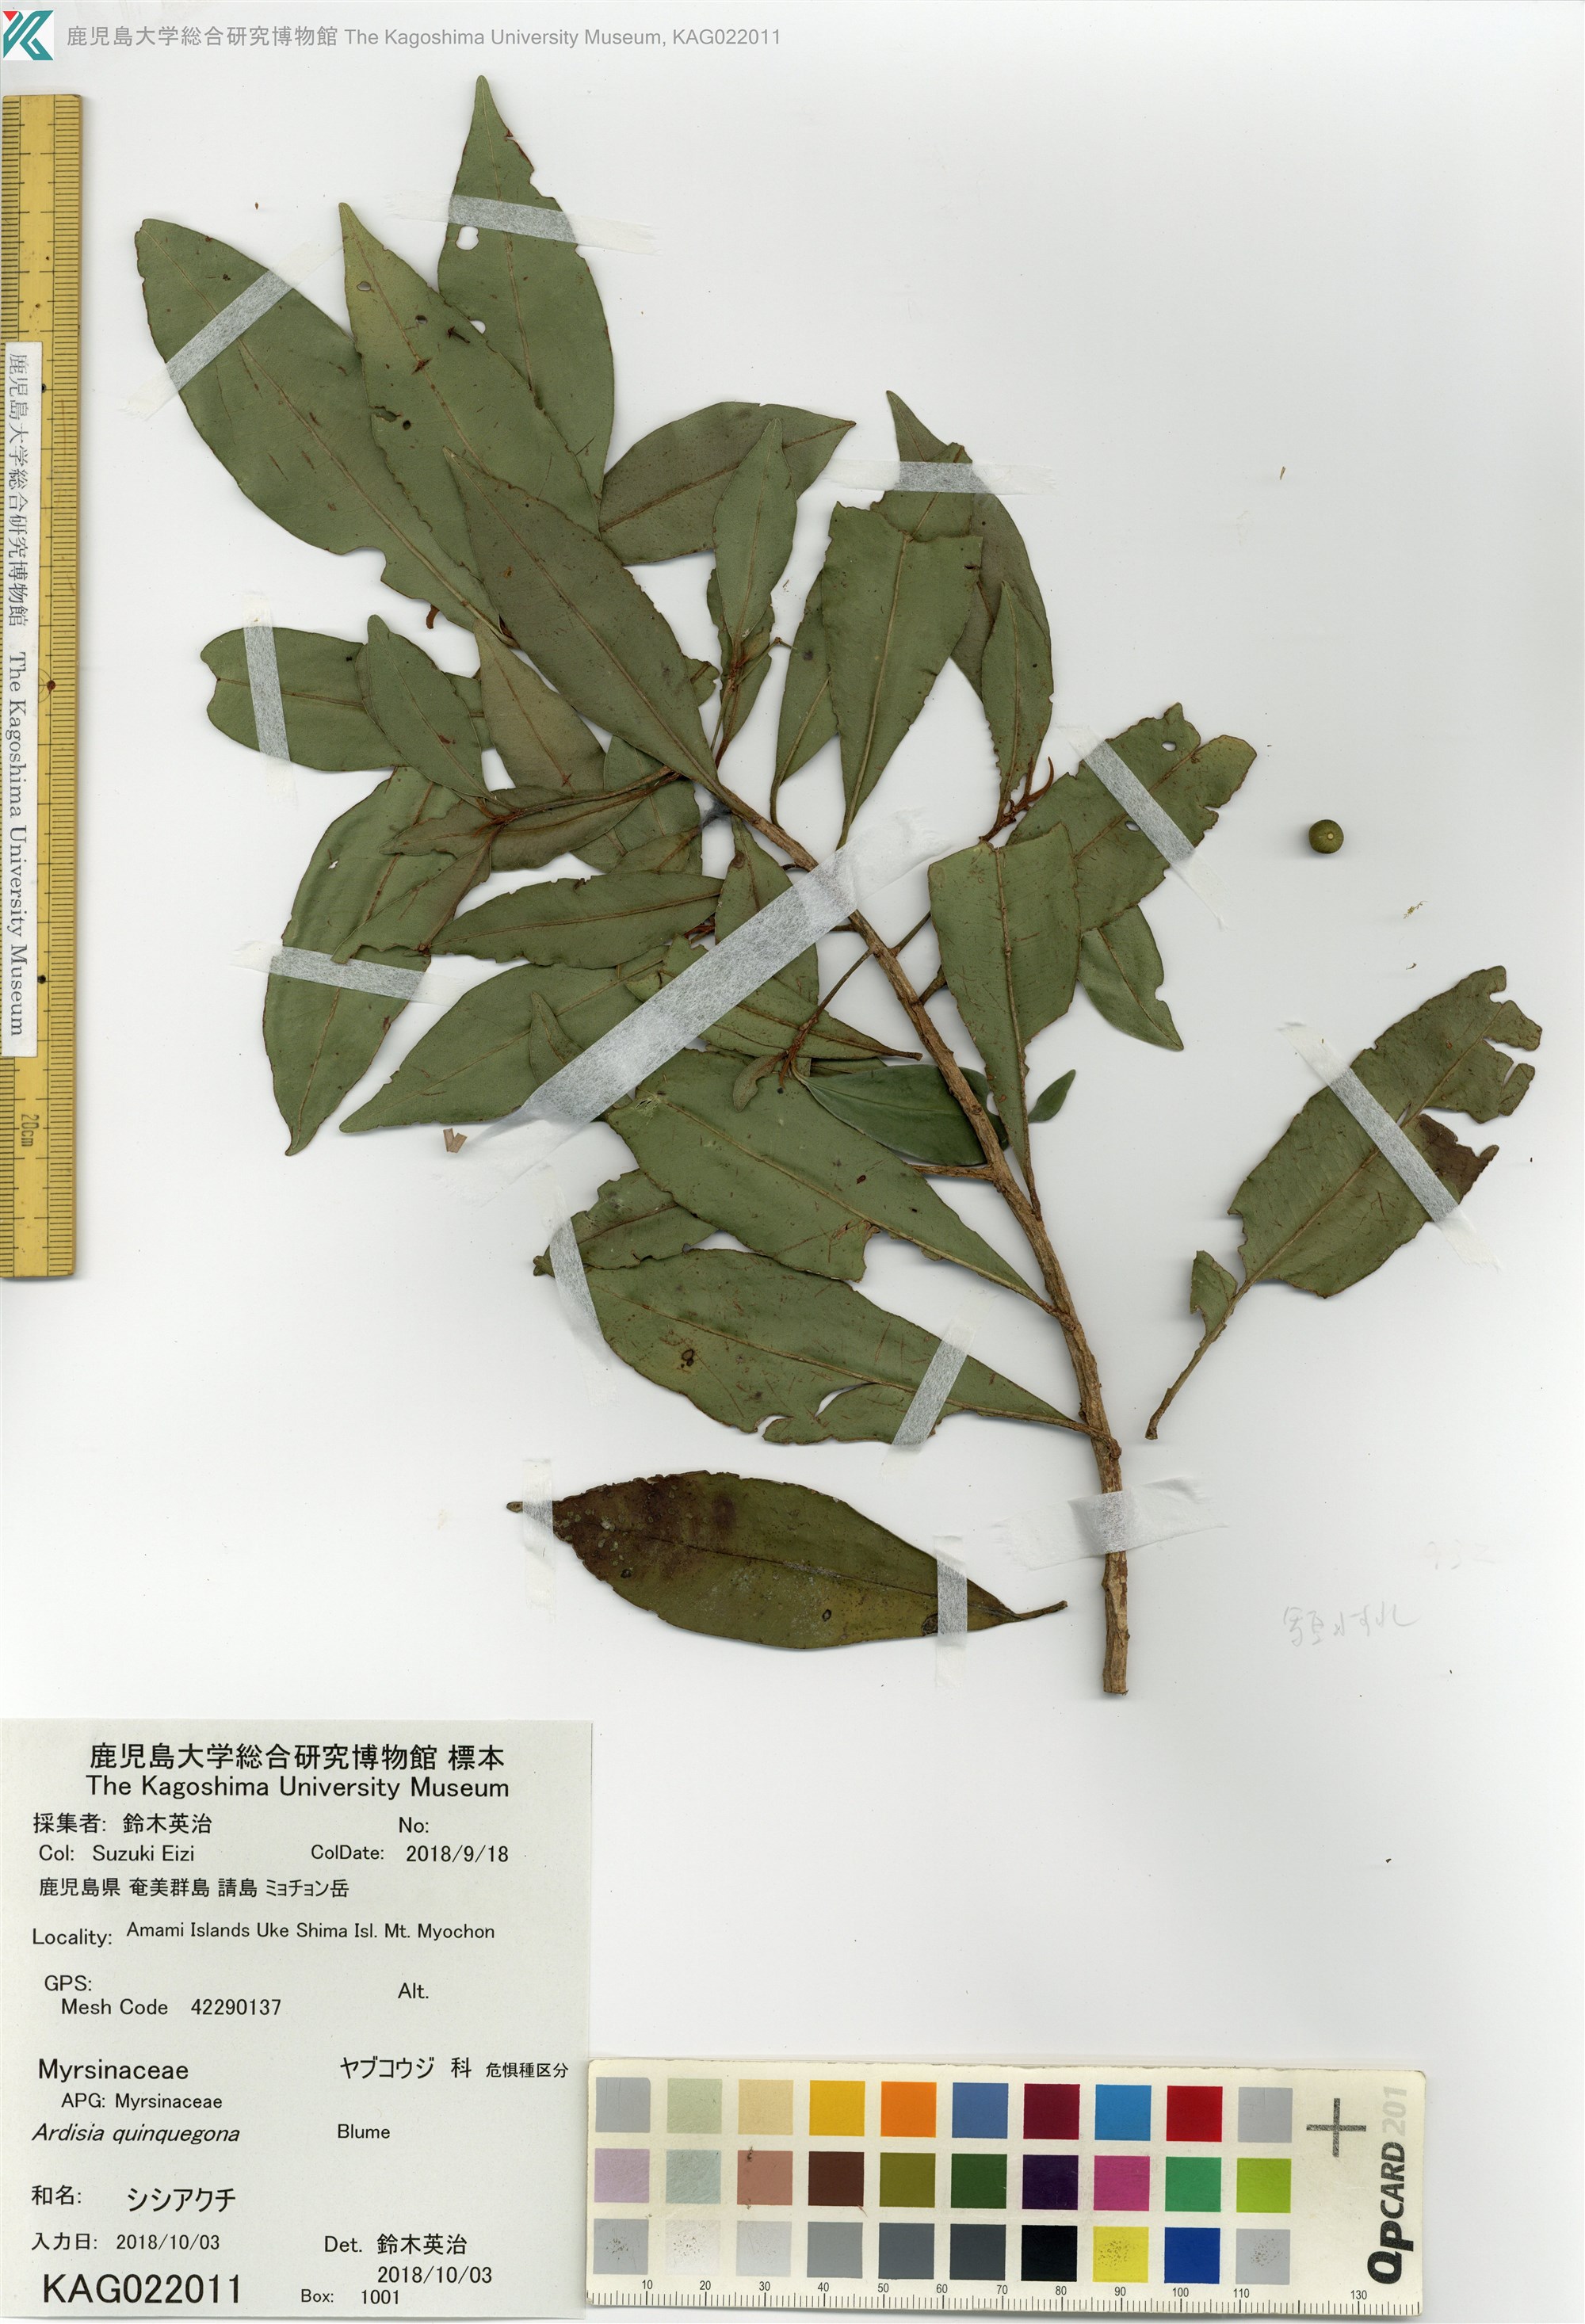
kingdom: Plantae
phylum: Tracheophyta
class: Magnoliopsida
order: Ericales
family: Primulaceae
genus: Ardisia
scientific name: Ardisia quinquegona
